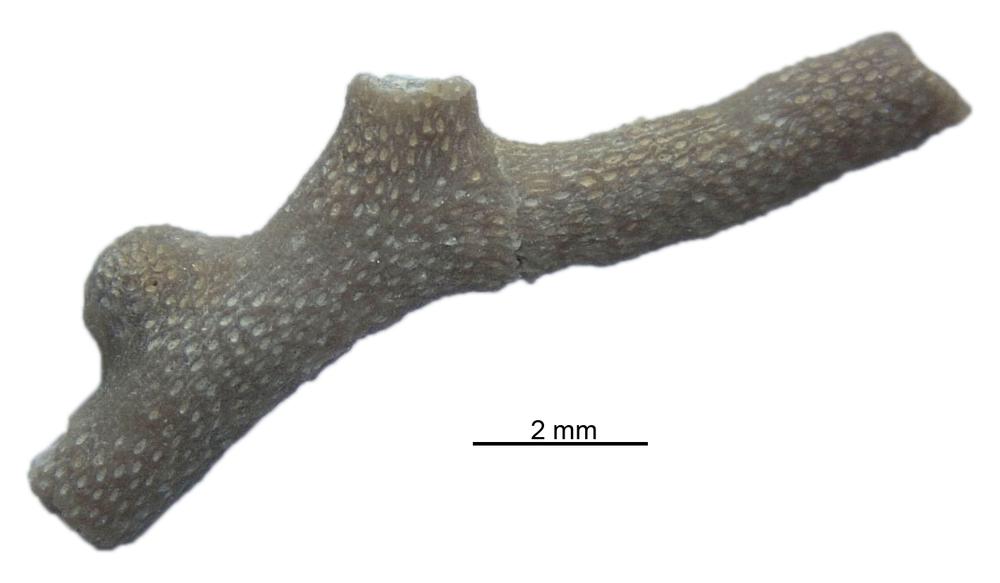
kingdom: Animalia
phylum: Bryozoa
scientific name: Bryozoa
